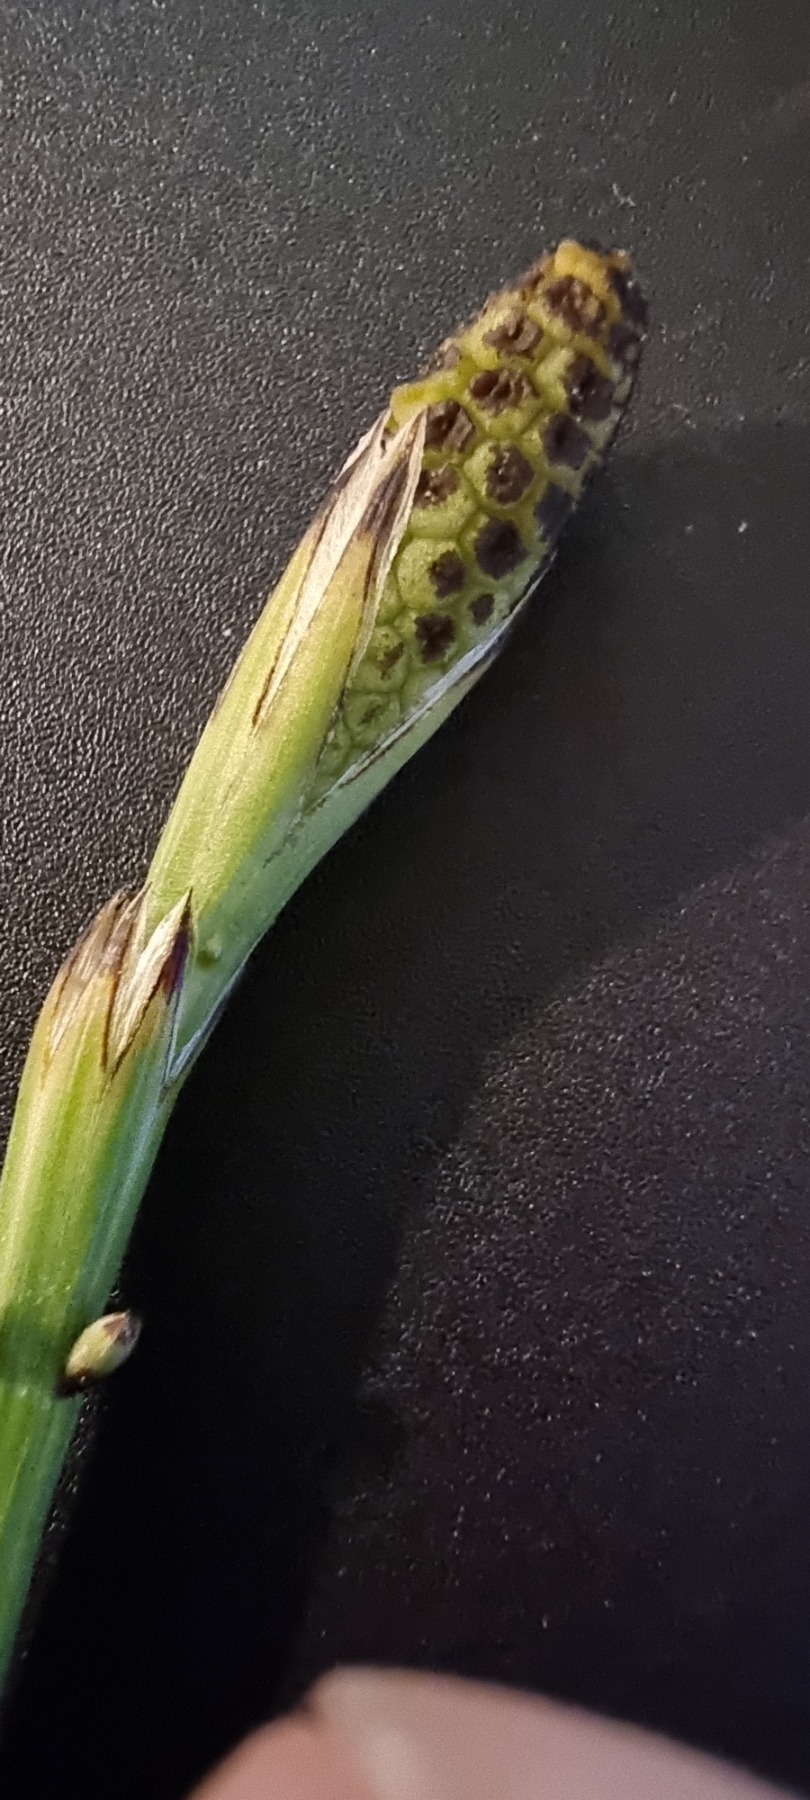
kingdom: Plantae
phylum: Tracheophyta
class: Polypodiopsida
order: Equisetales
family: Equisetaceae
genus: Equisetum
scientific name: Equisetum palustre
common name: Kær-padderok
